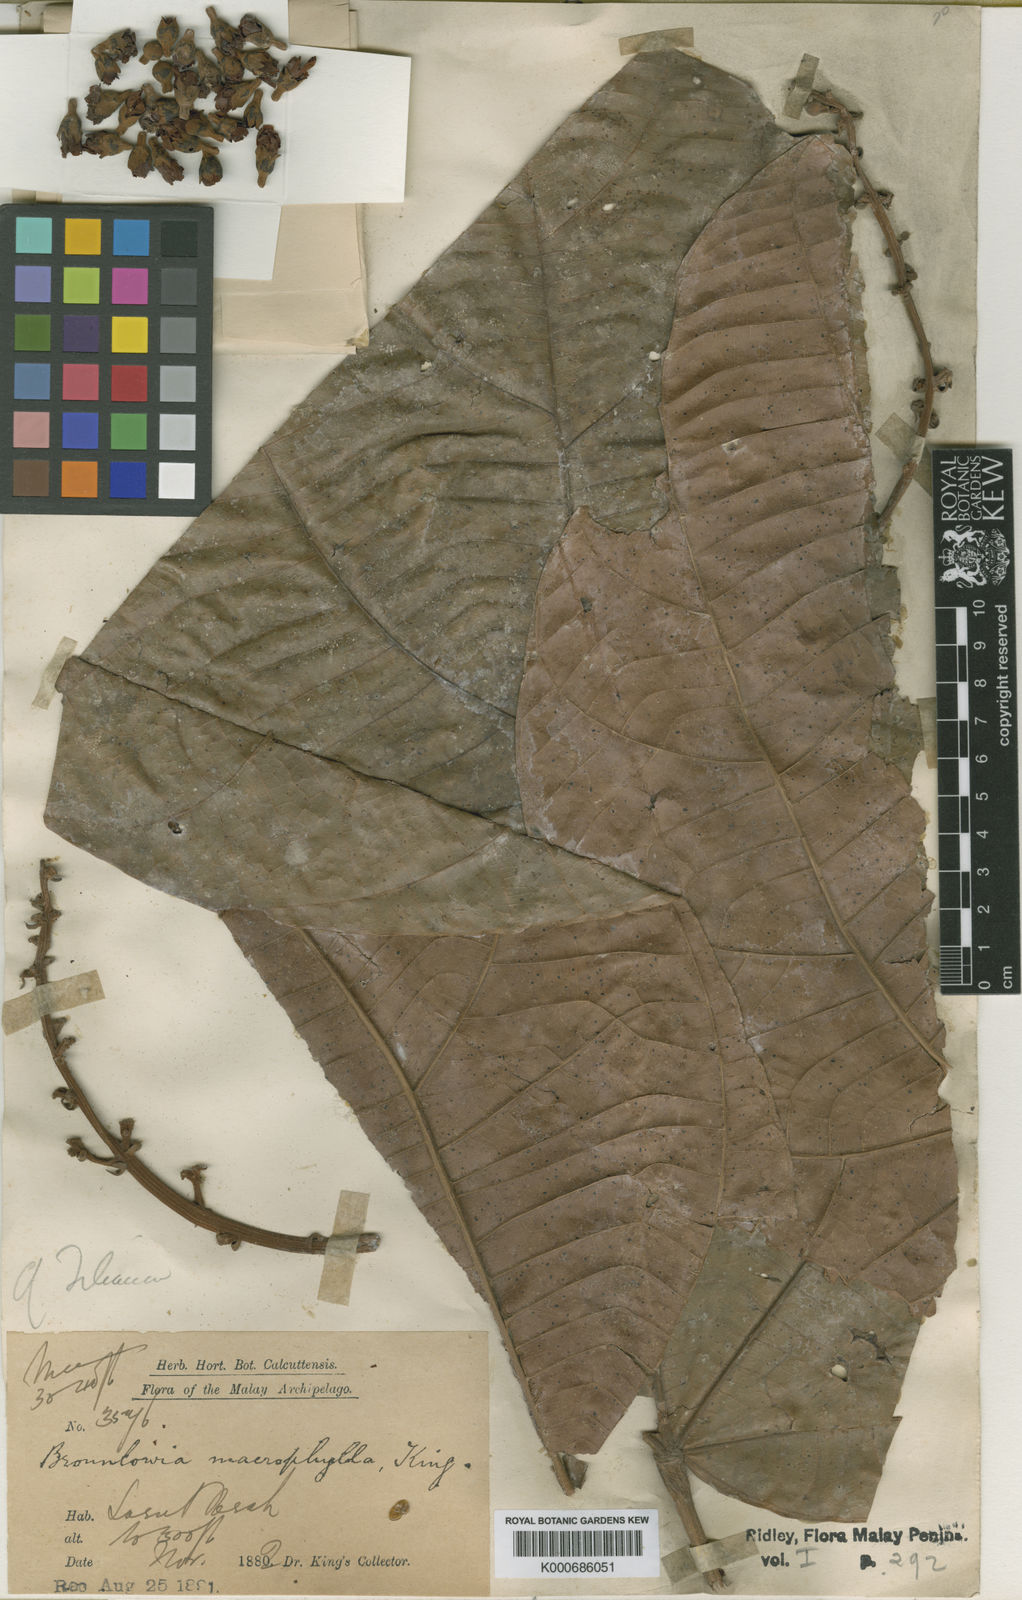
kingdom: Plantae
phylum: Tracheophyta
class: Magnoliopsida
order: Malvales
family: Malvaceae
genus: Brownlowia
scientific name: Brownlowia macrophylla
